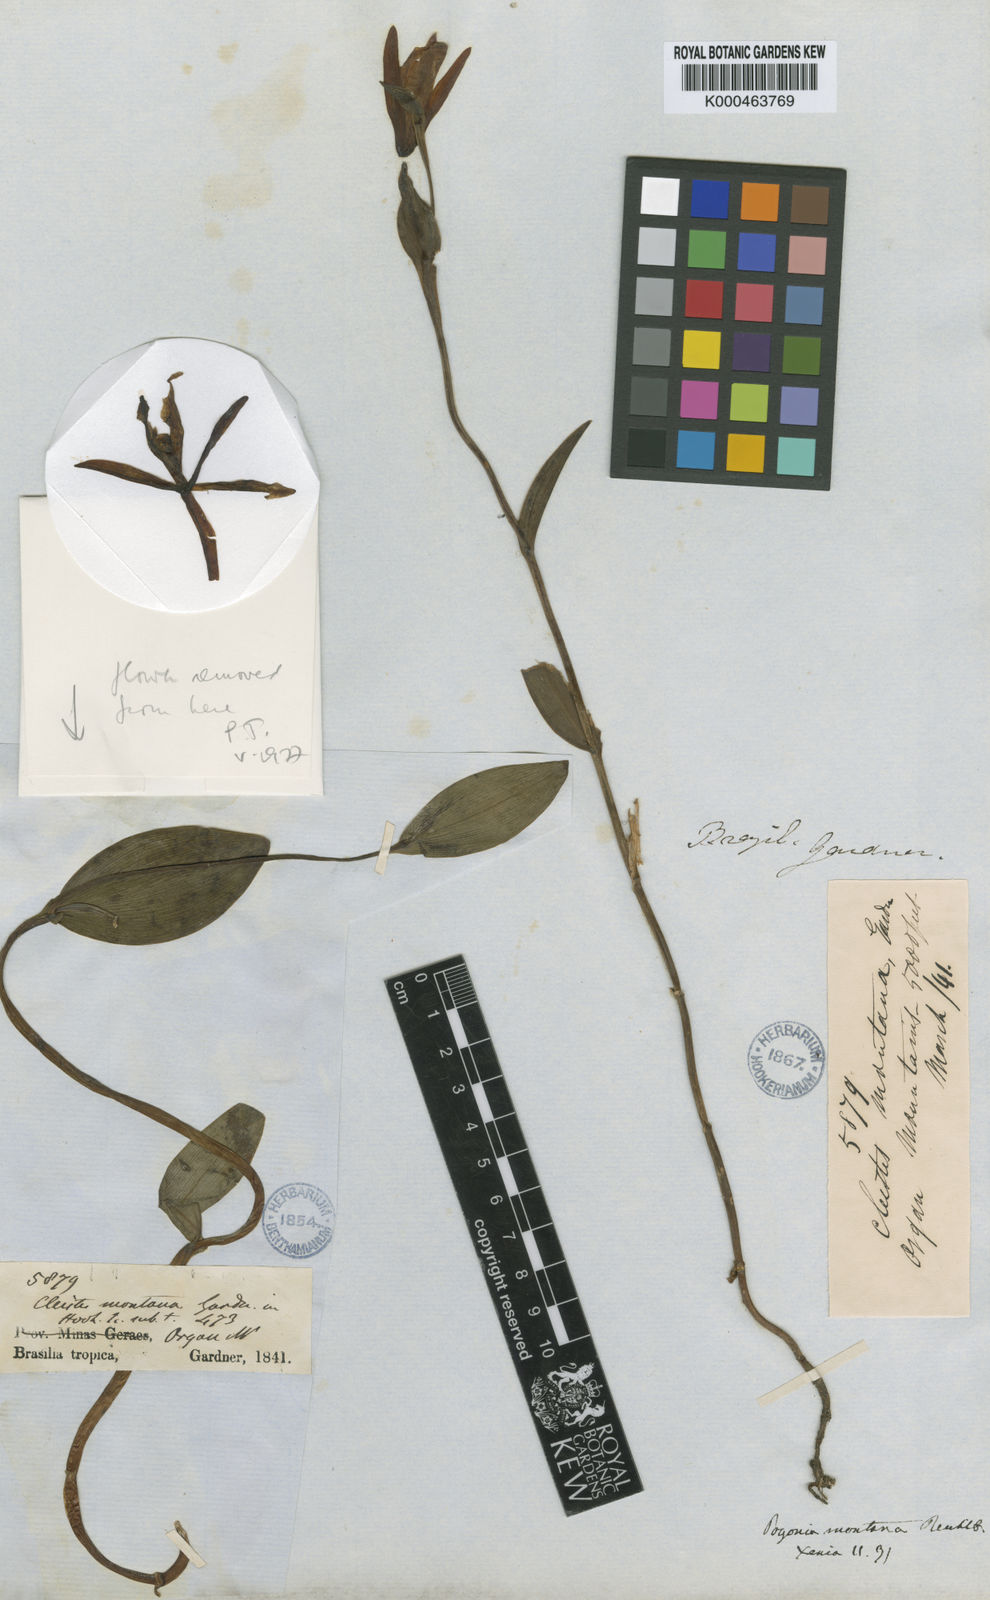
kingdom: Plantae
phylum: Tracheophyta
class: Liliopsida
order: Asparagales
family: Orchidaceae
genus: Cleistes
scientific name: Cleistes montana
